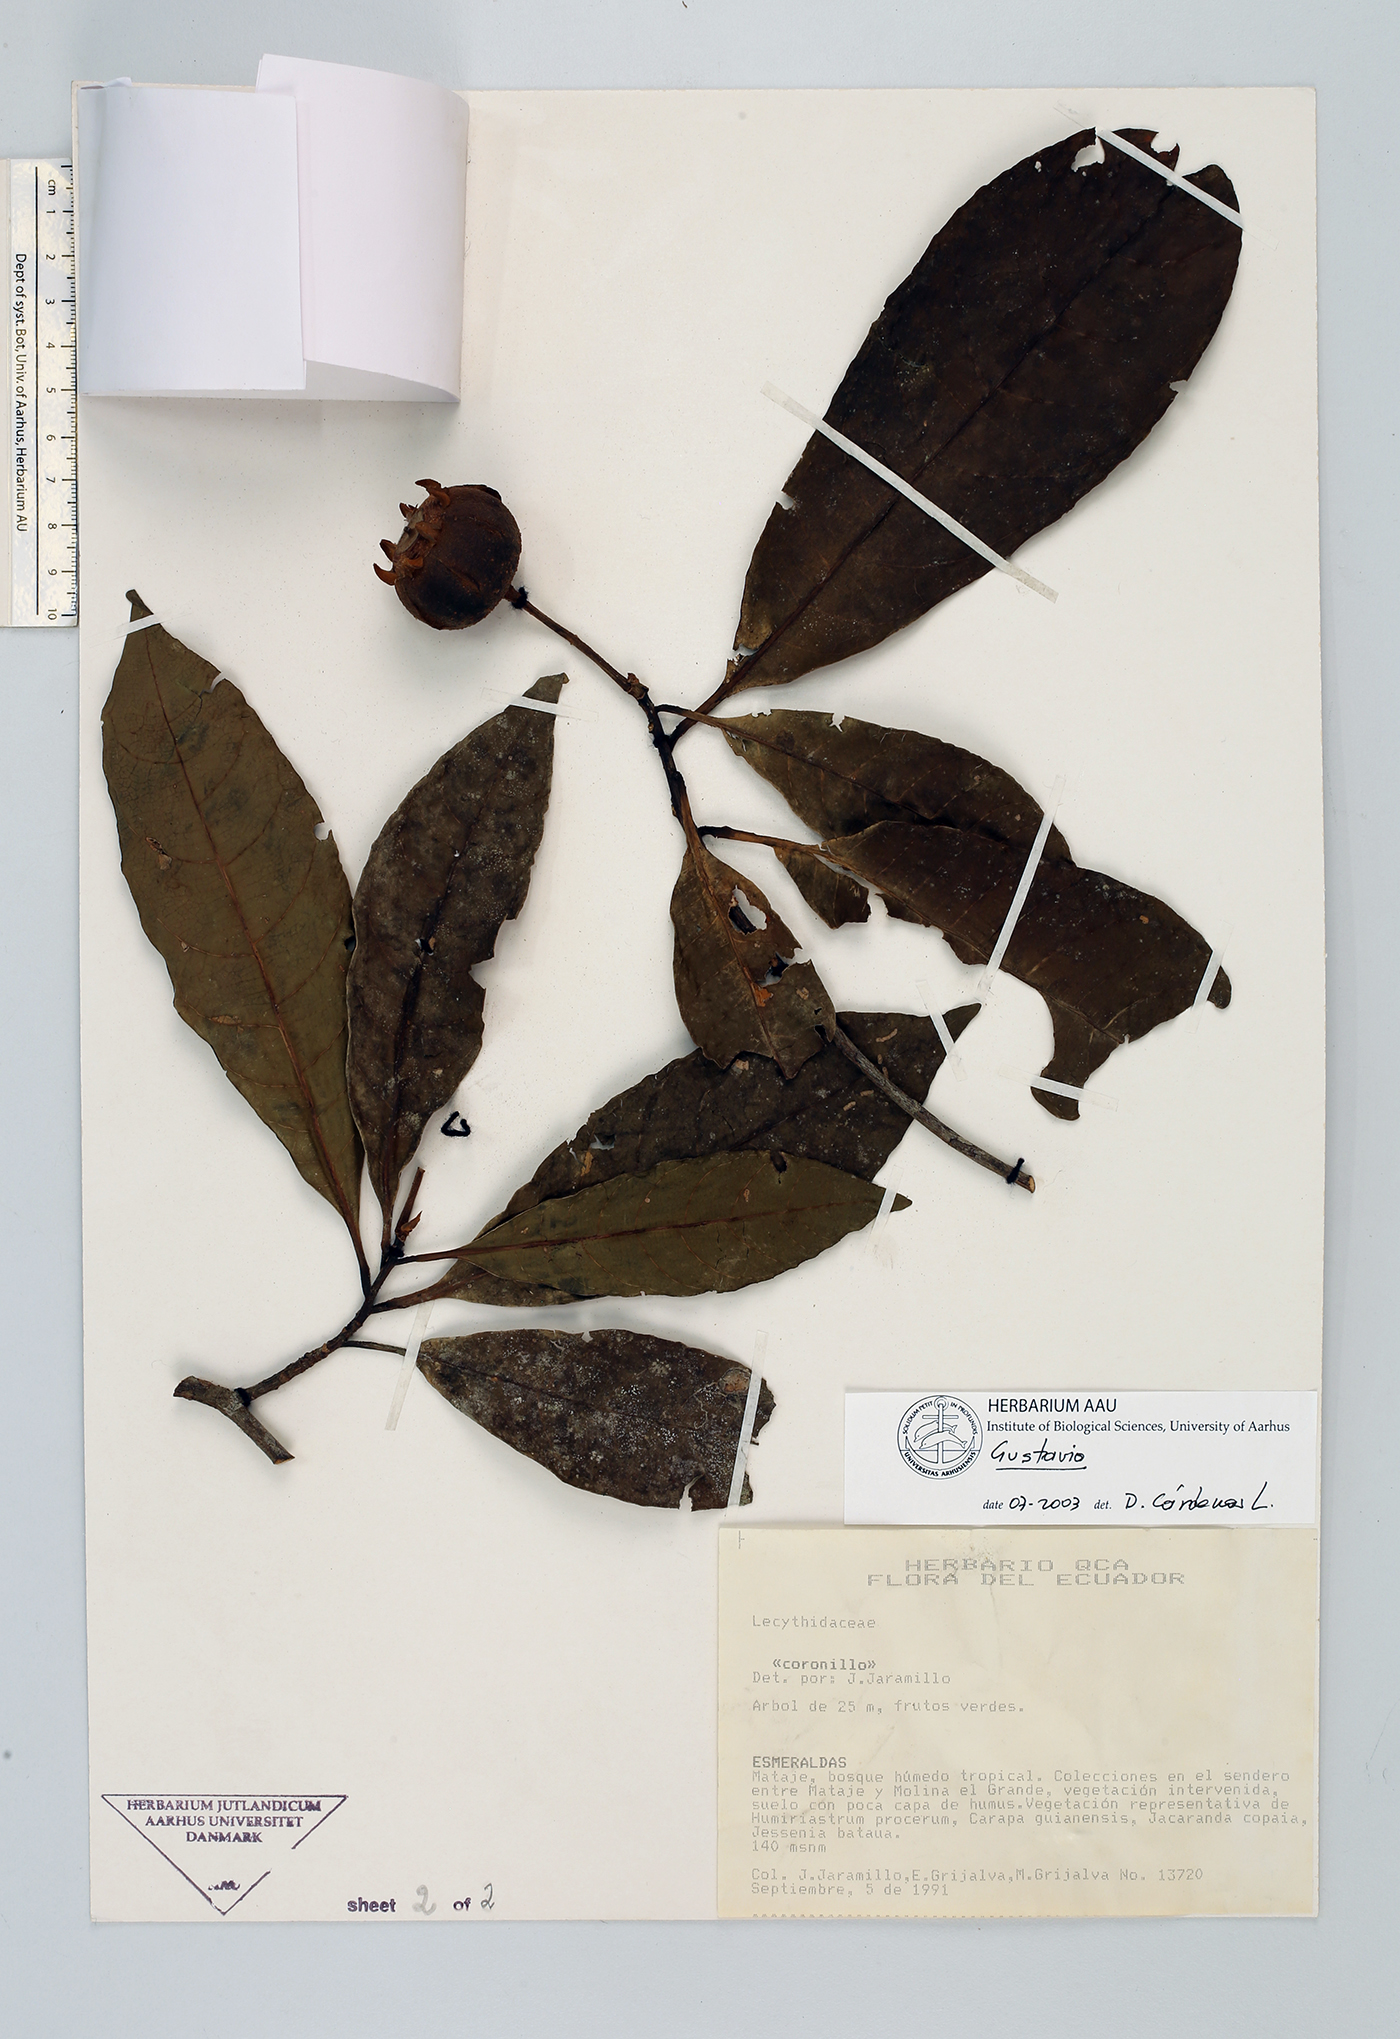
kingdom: Plantae
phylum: Tracheophyta
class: Magnoliopsida
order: Ericales
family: Lecythidaceae
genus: Gustavia
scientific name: Gustavia
